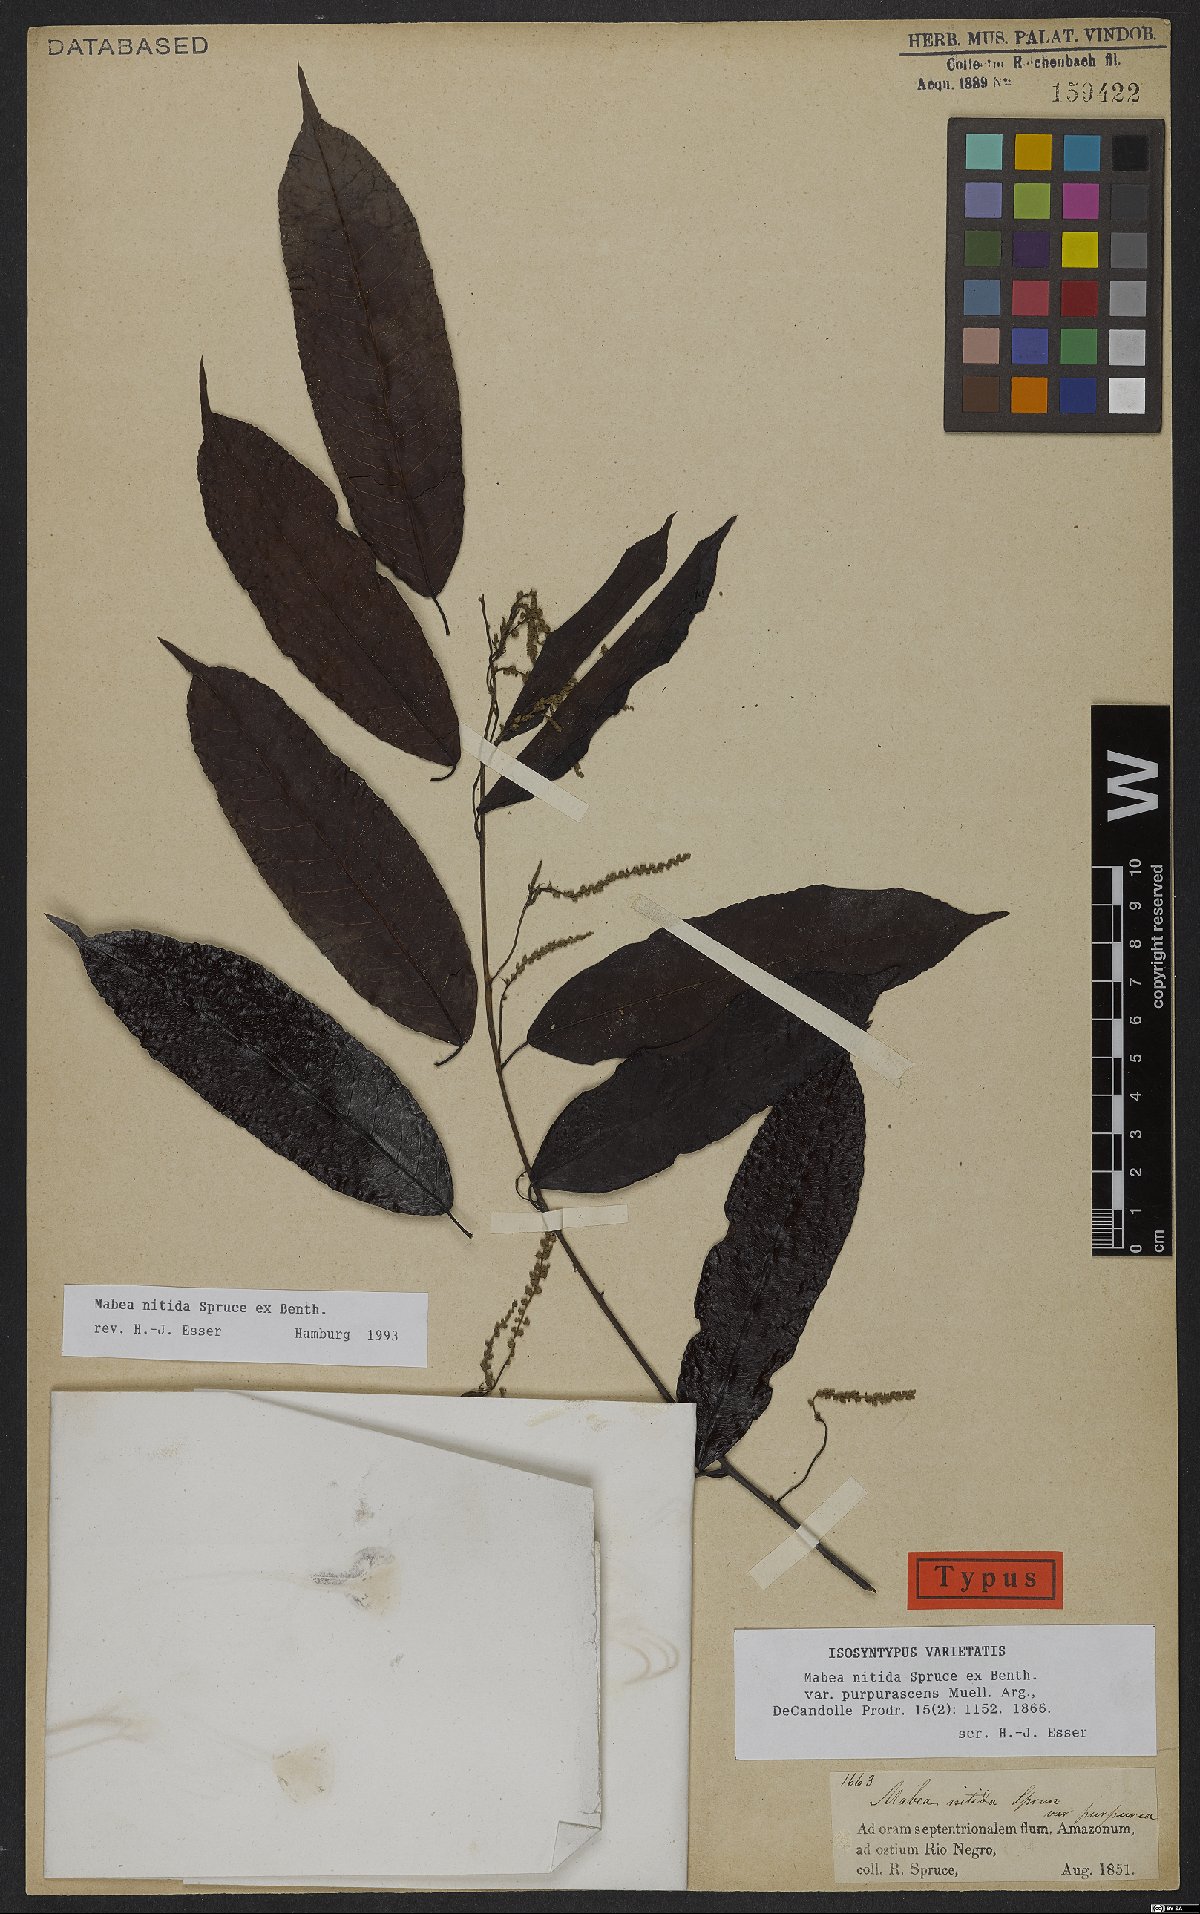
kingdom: Plantae
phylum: Tracheophyta
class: Magnoliopsida
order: Malpighiales
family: Euphorbiaceae
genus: Mabea
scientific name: Mabea nitida
